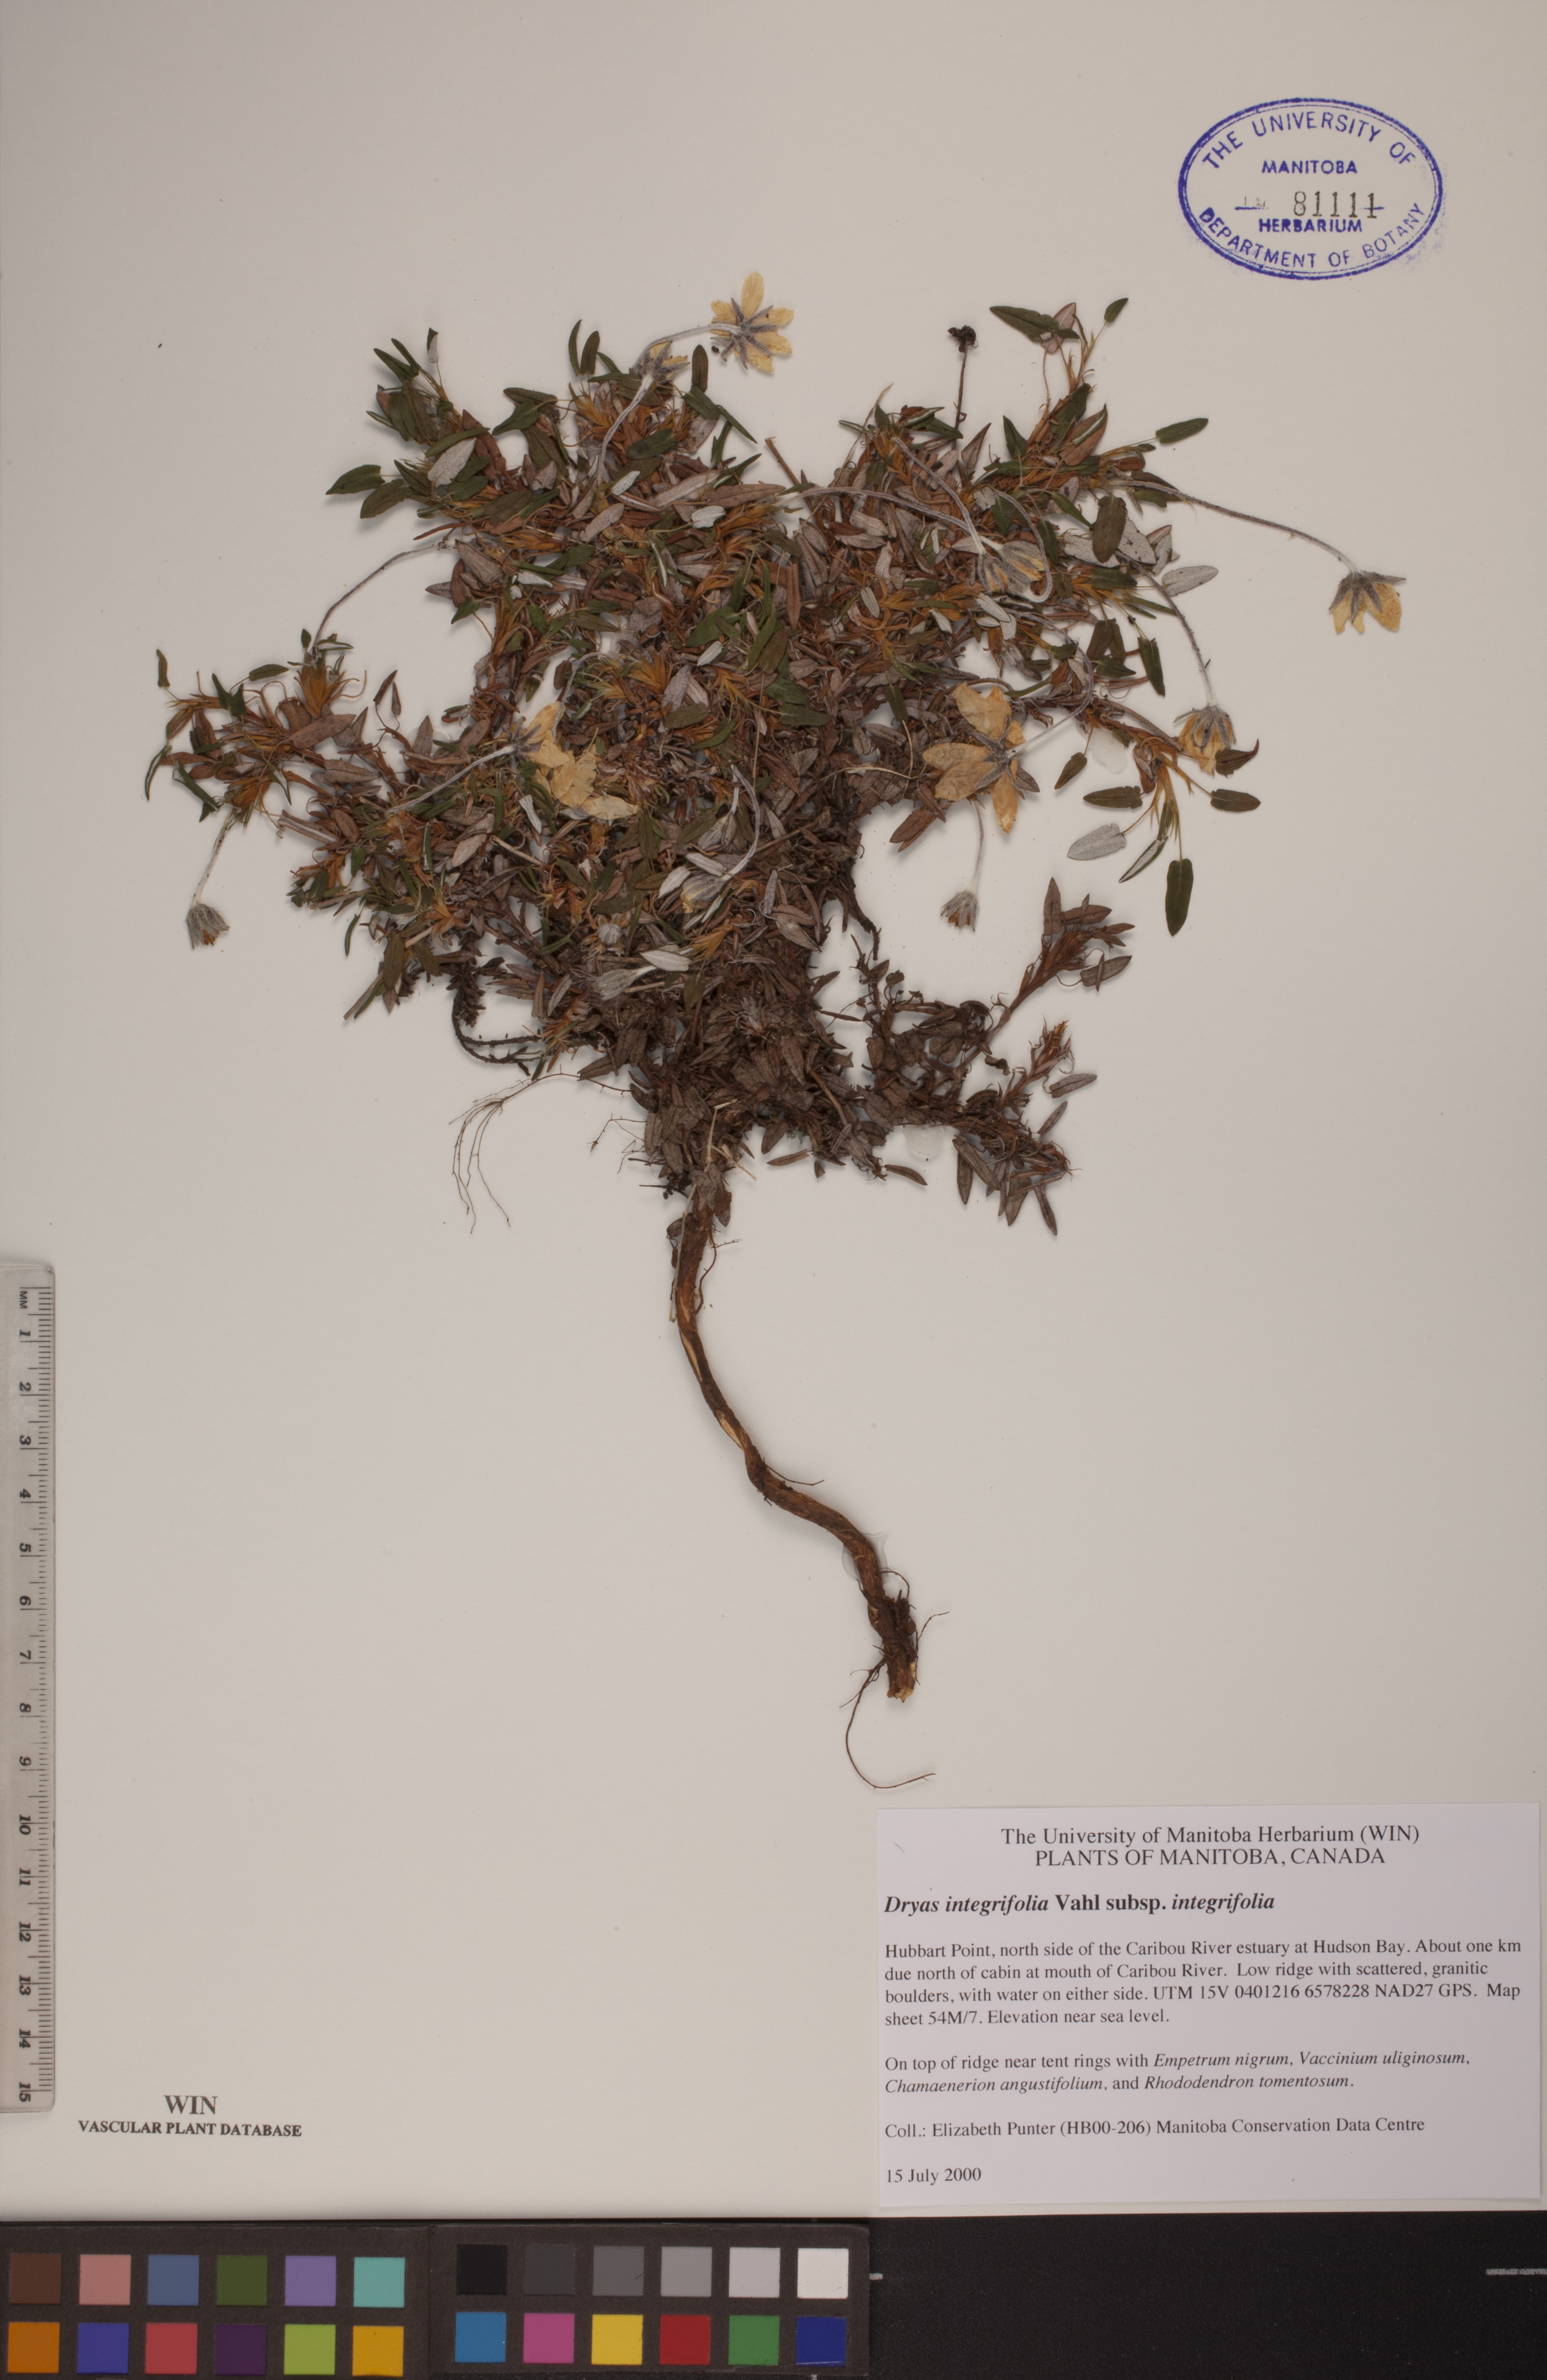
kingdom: Plantae
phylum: Tracheophyta
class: Magnoliopsida
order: Rosales
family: Rosaceae
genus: Dryas
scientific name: Dryas integrifolia
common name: Entire-leaved mountain avens
